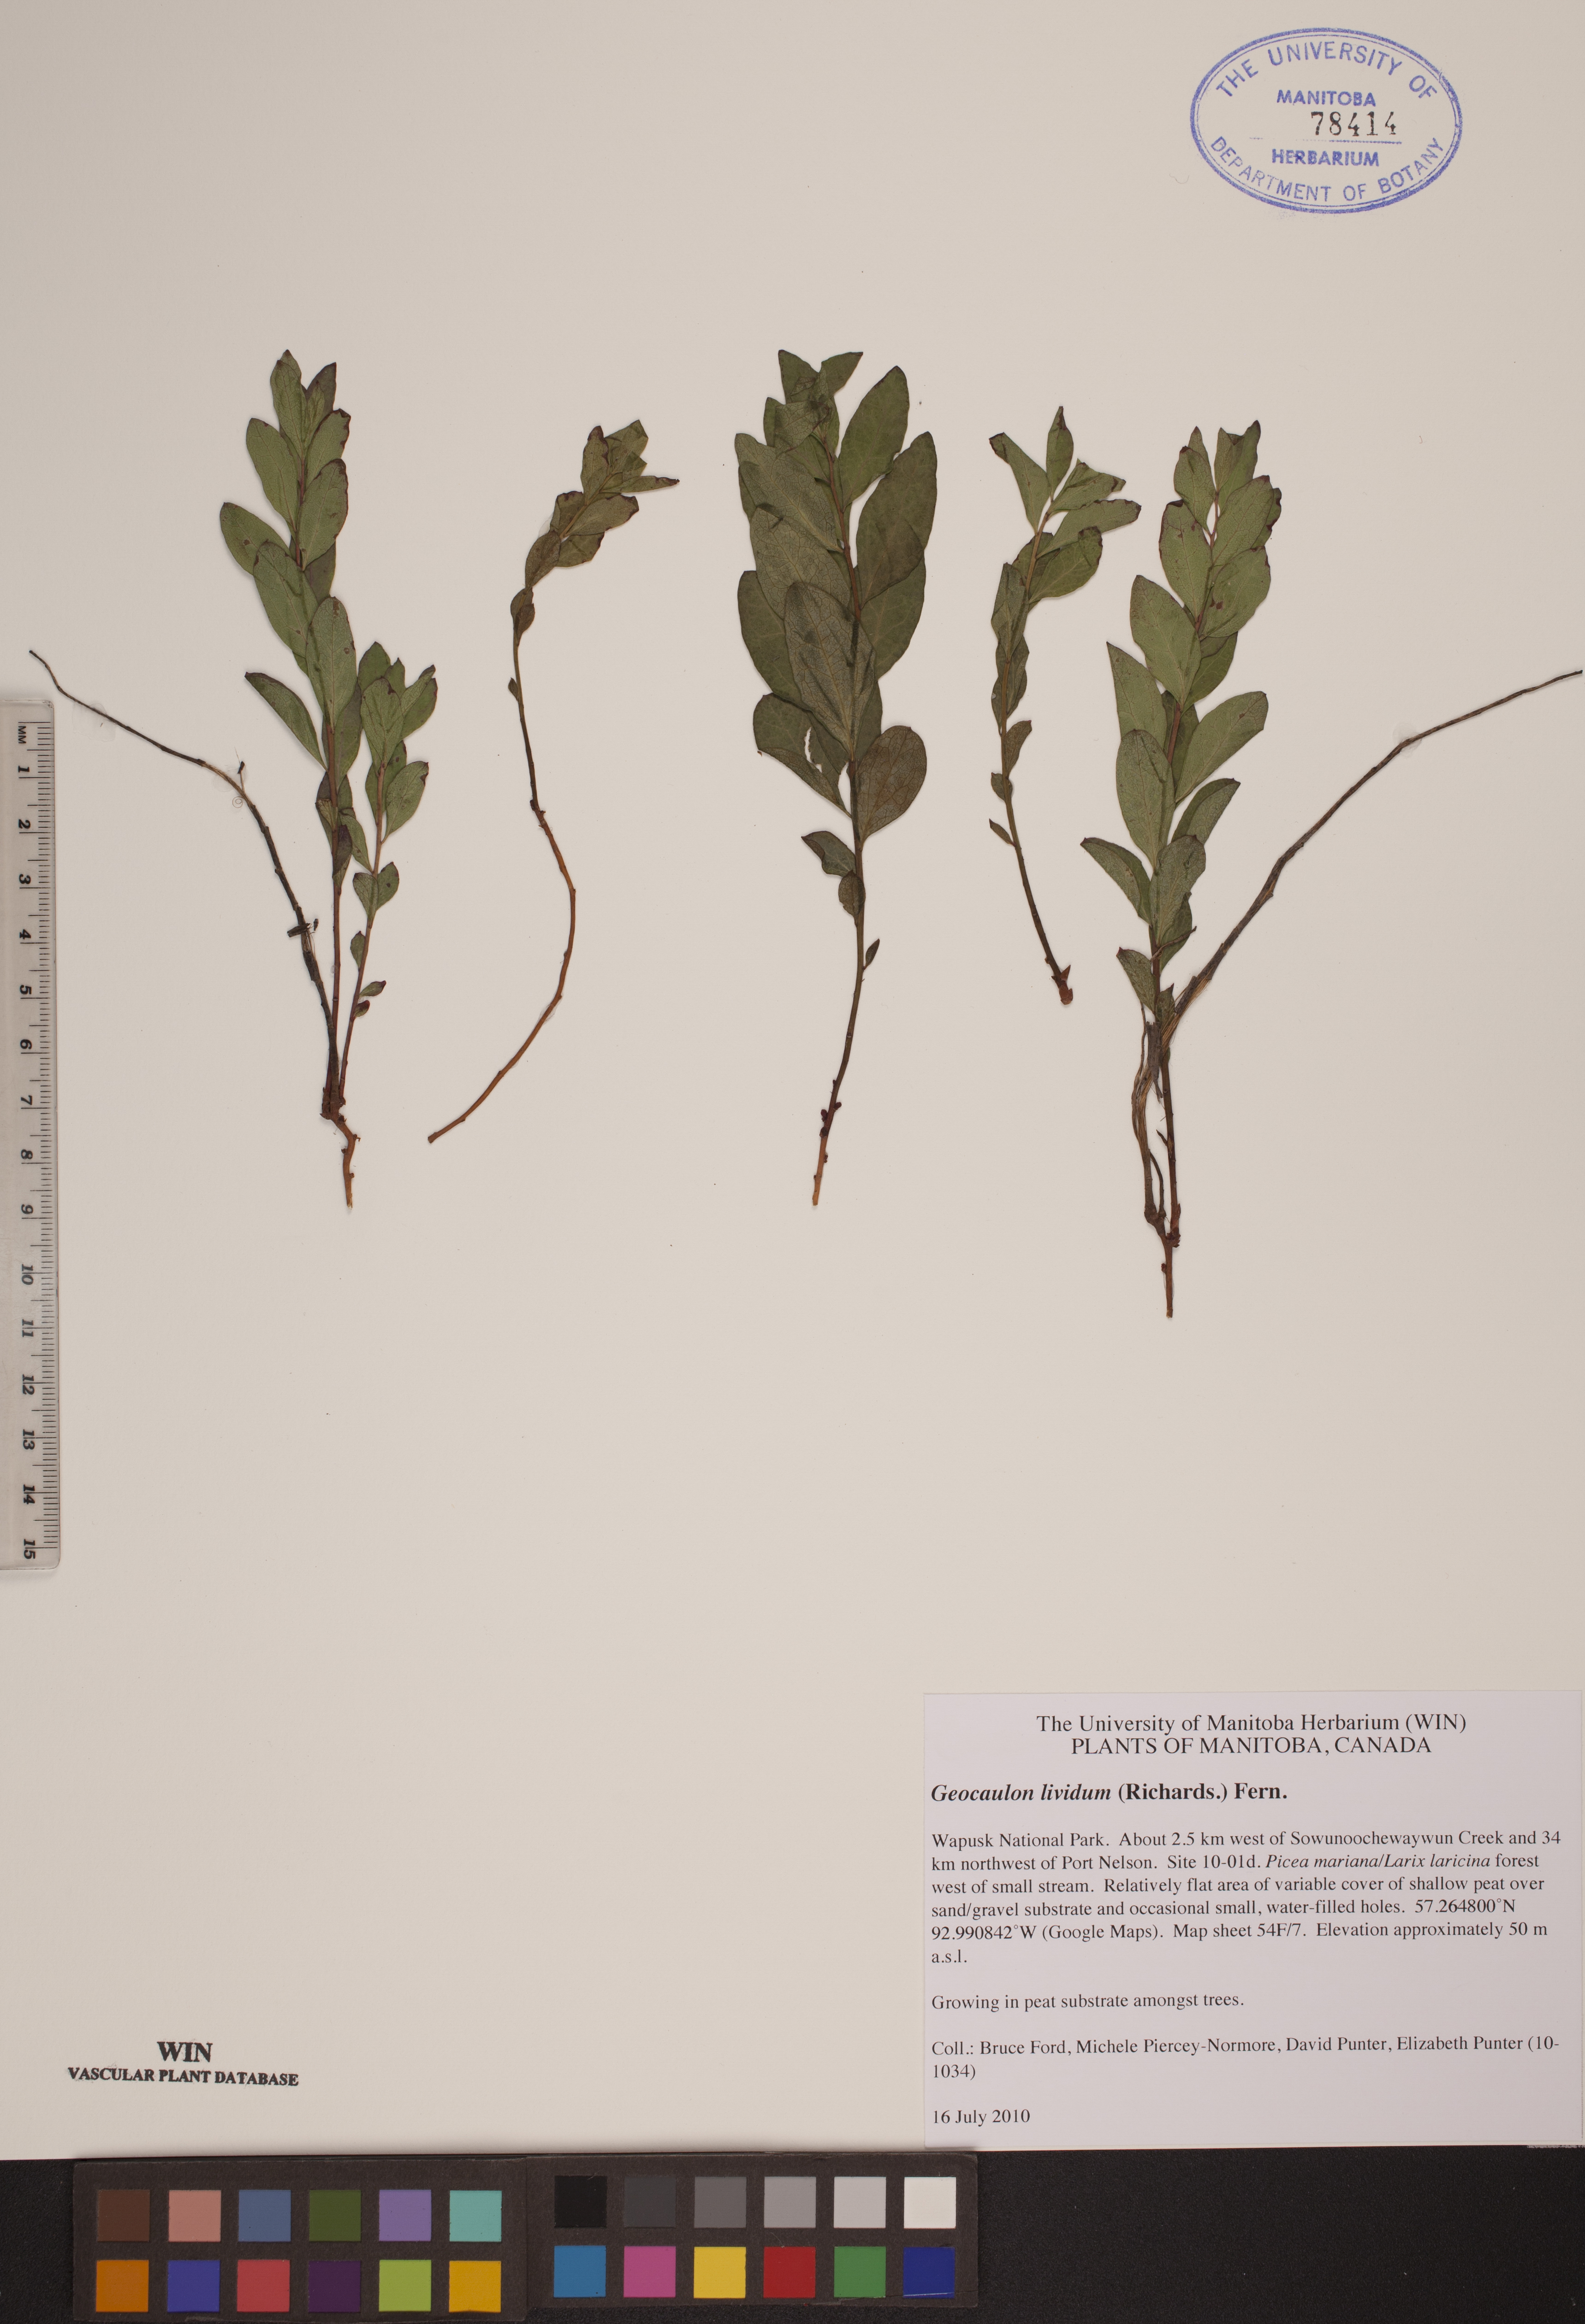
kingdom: Plantae
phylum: Tracheophyta
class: Magnoliopsida
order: Santalales
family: Comandraceae
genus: Geocaulon
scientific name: Geocaulon lividum
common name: Earthberry
